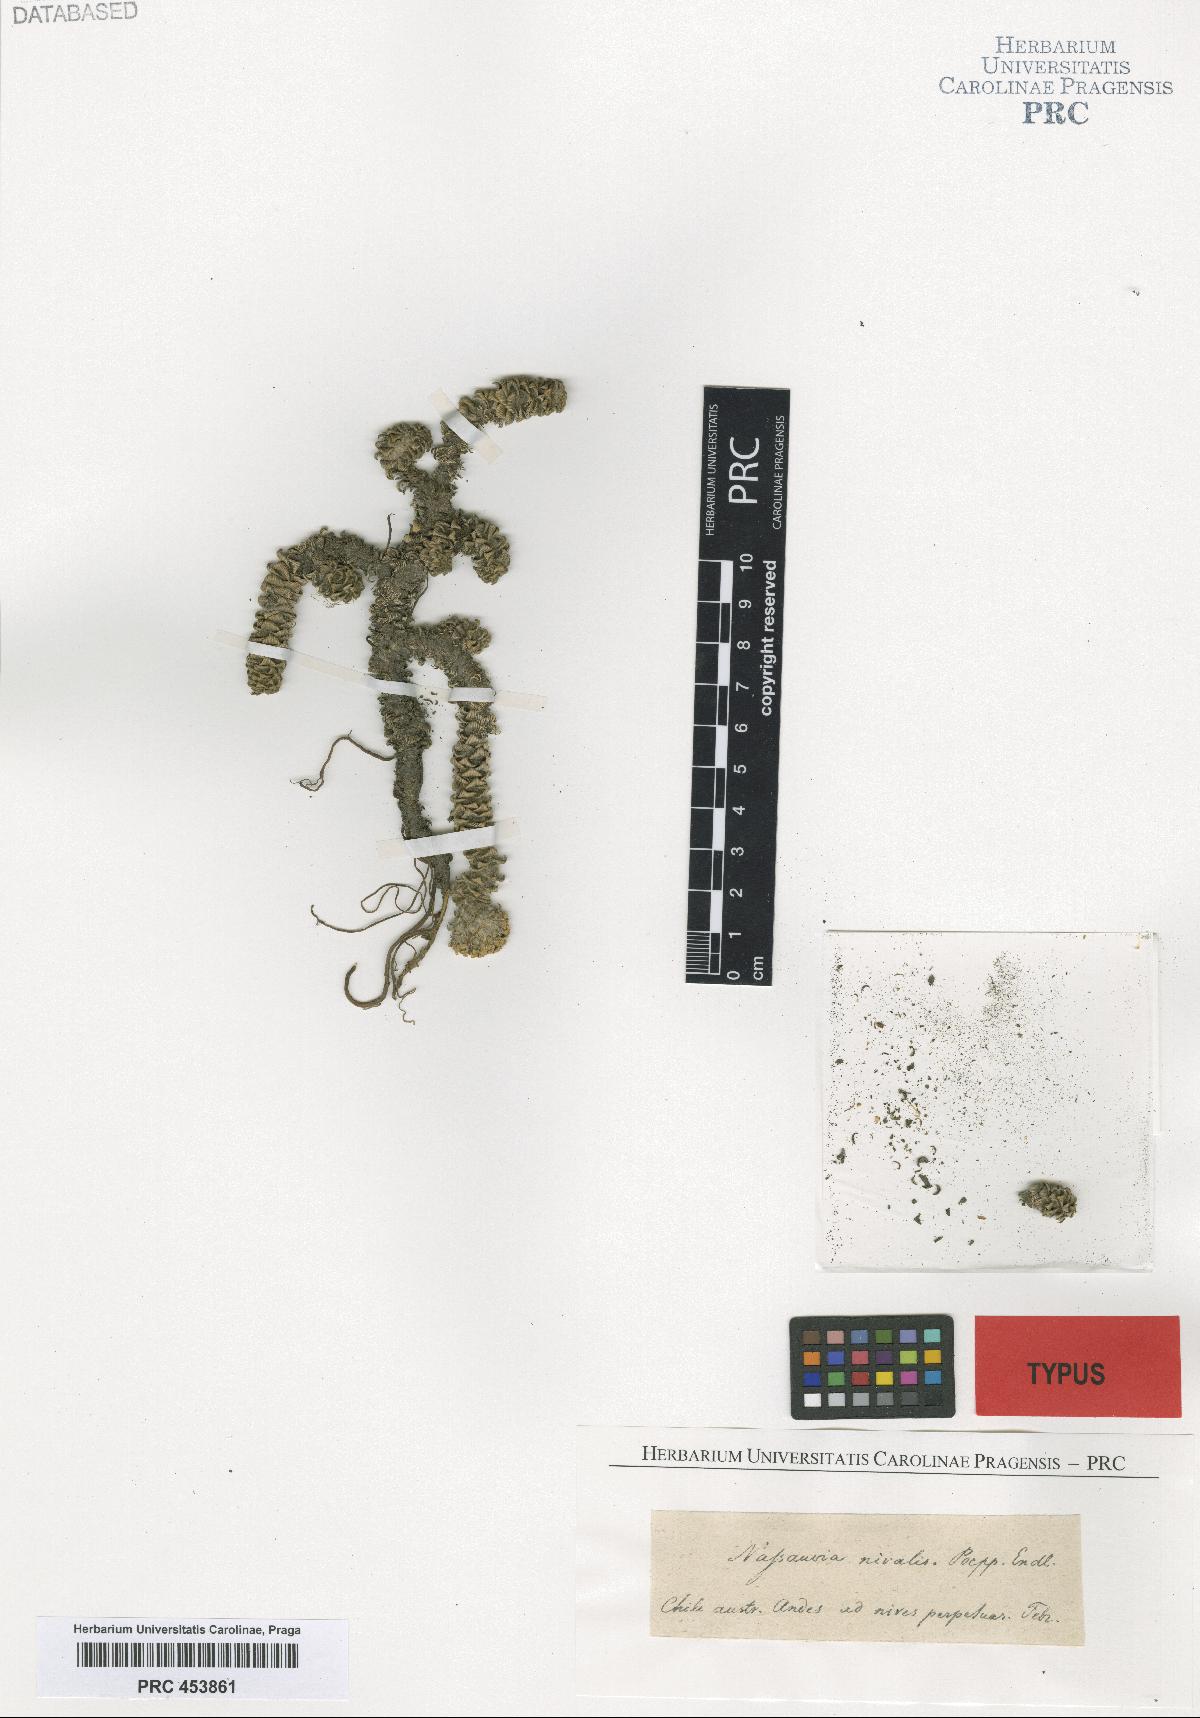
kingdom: Plantae
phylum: Tracheophyta
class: Magnoliopsida
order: Asterales
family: Asteraceae
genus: Nassauvia
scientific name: Nassauvia revoluta
